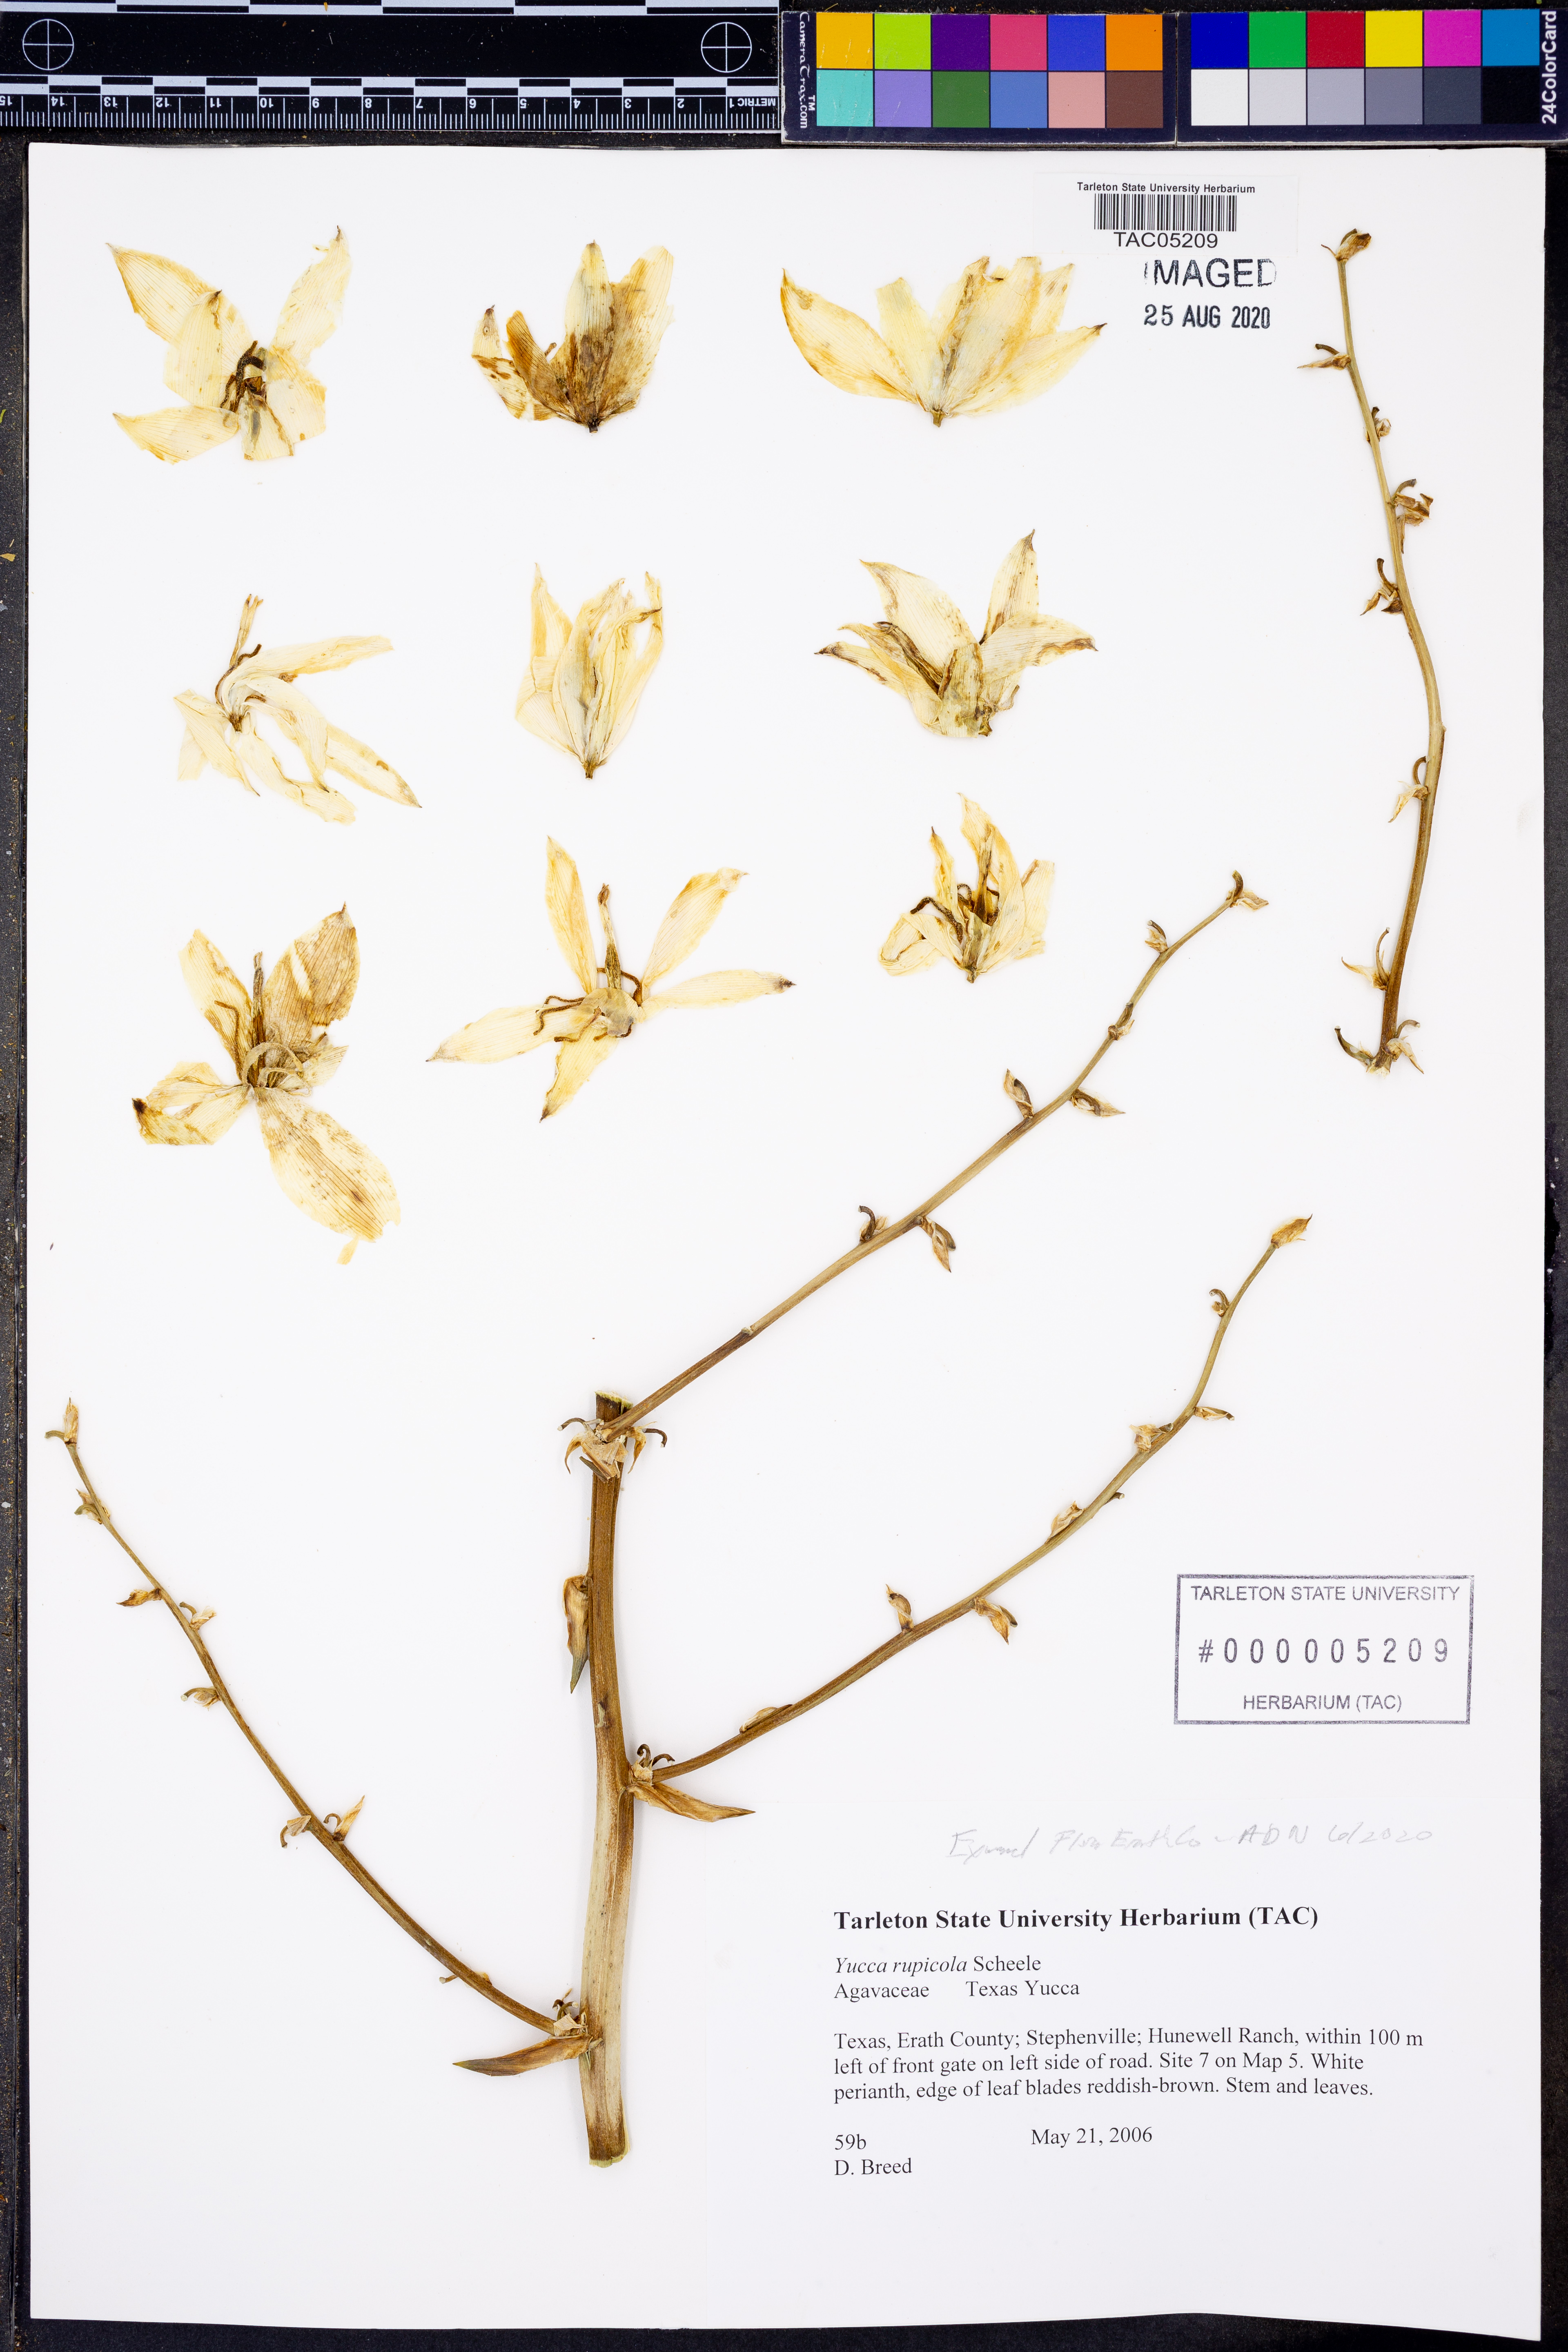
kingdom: Plantae
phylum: Tracheophyta
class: Liliopsida
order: Asparagales
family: Asparagaceae
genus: Yucca
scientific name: Yucca rupicola
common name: Twisted-leaf spanish-dagger
